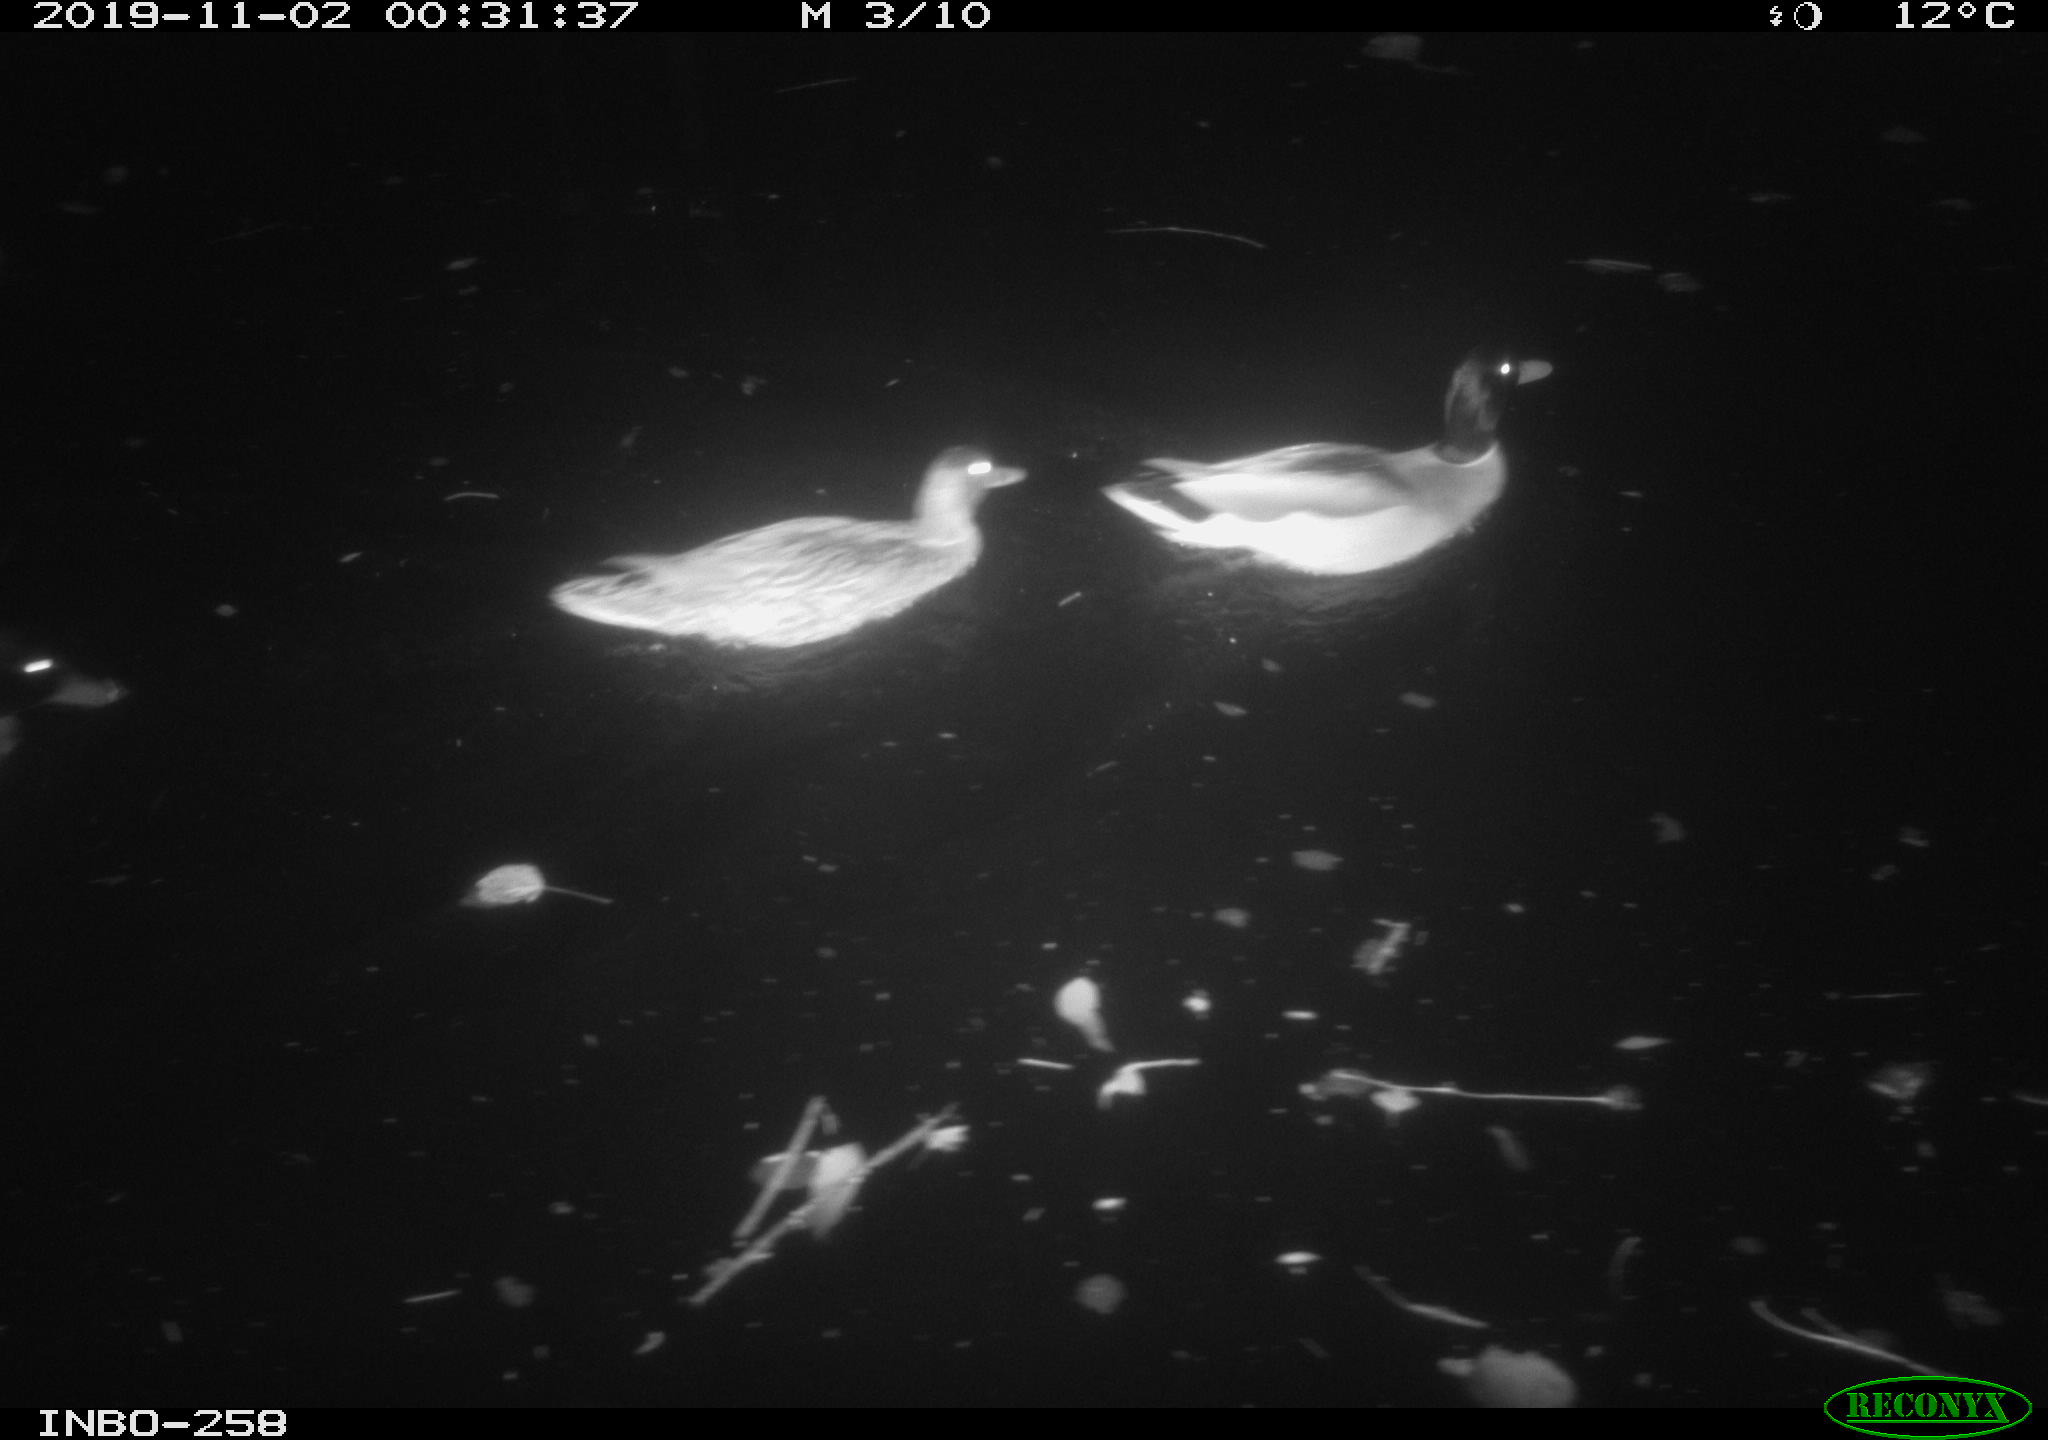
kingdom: Animalia
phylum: Chordata
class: Aves
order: Anseriformes
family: Anatidae
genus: Anas
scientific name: Anas platyrhynchos
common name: Mallard
